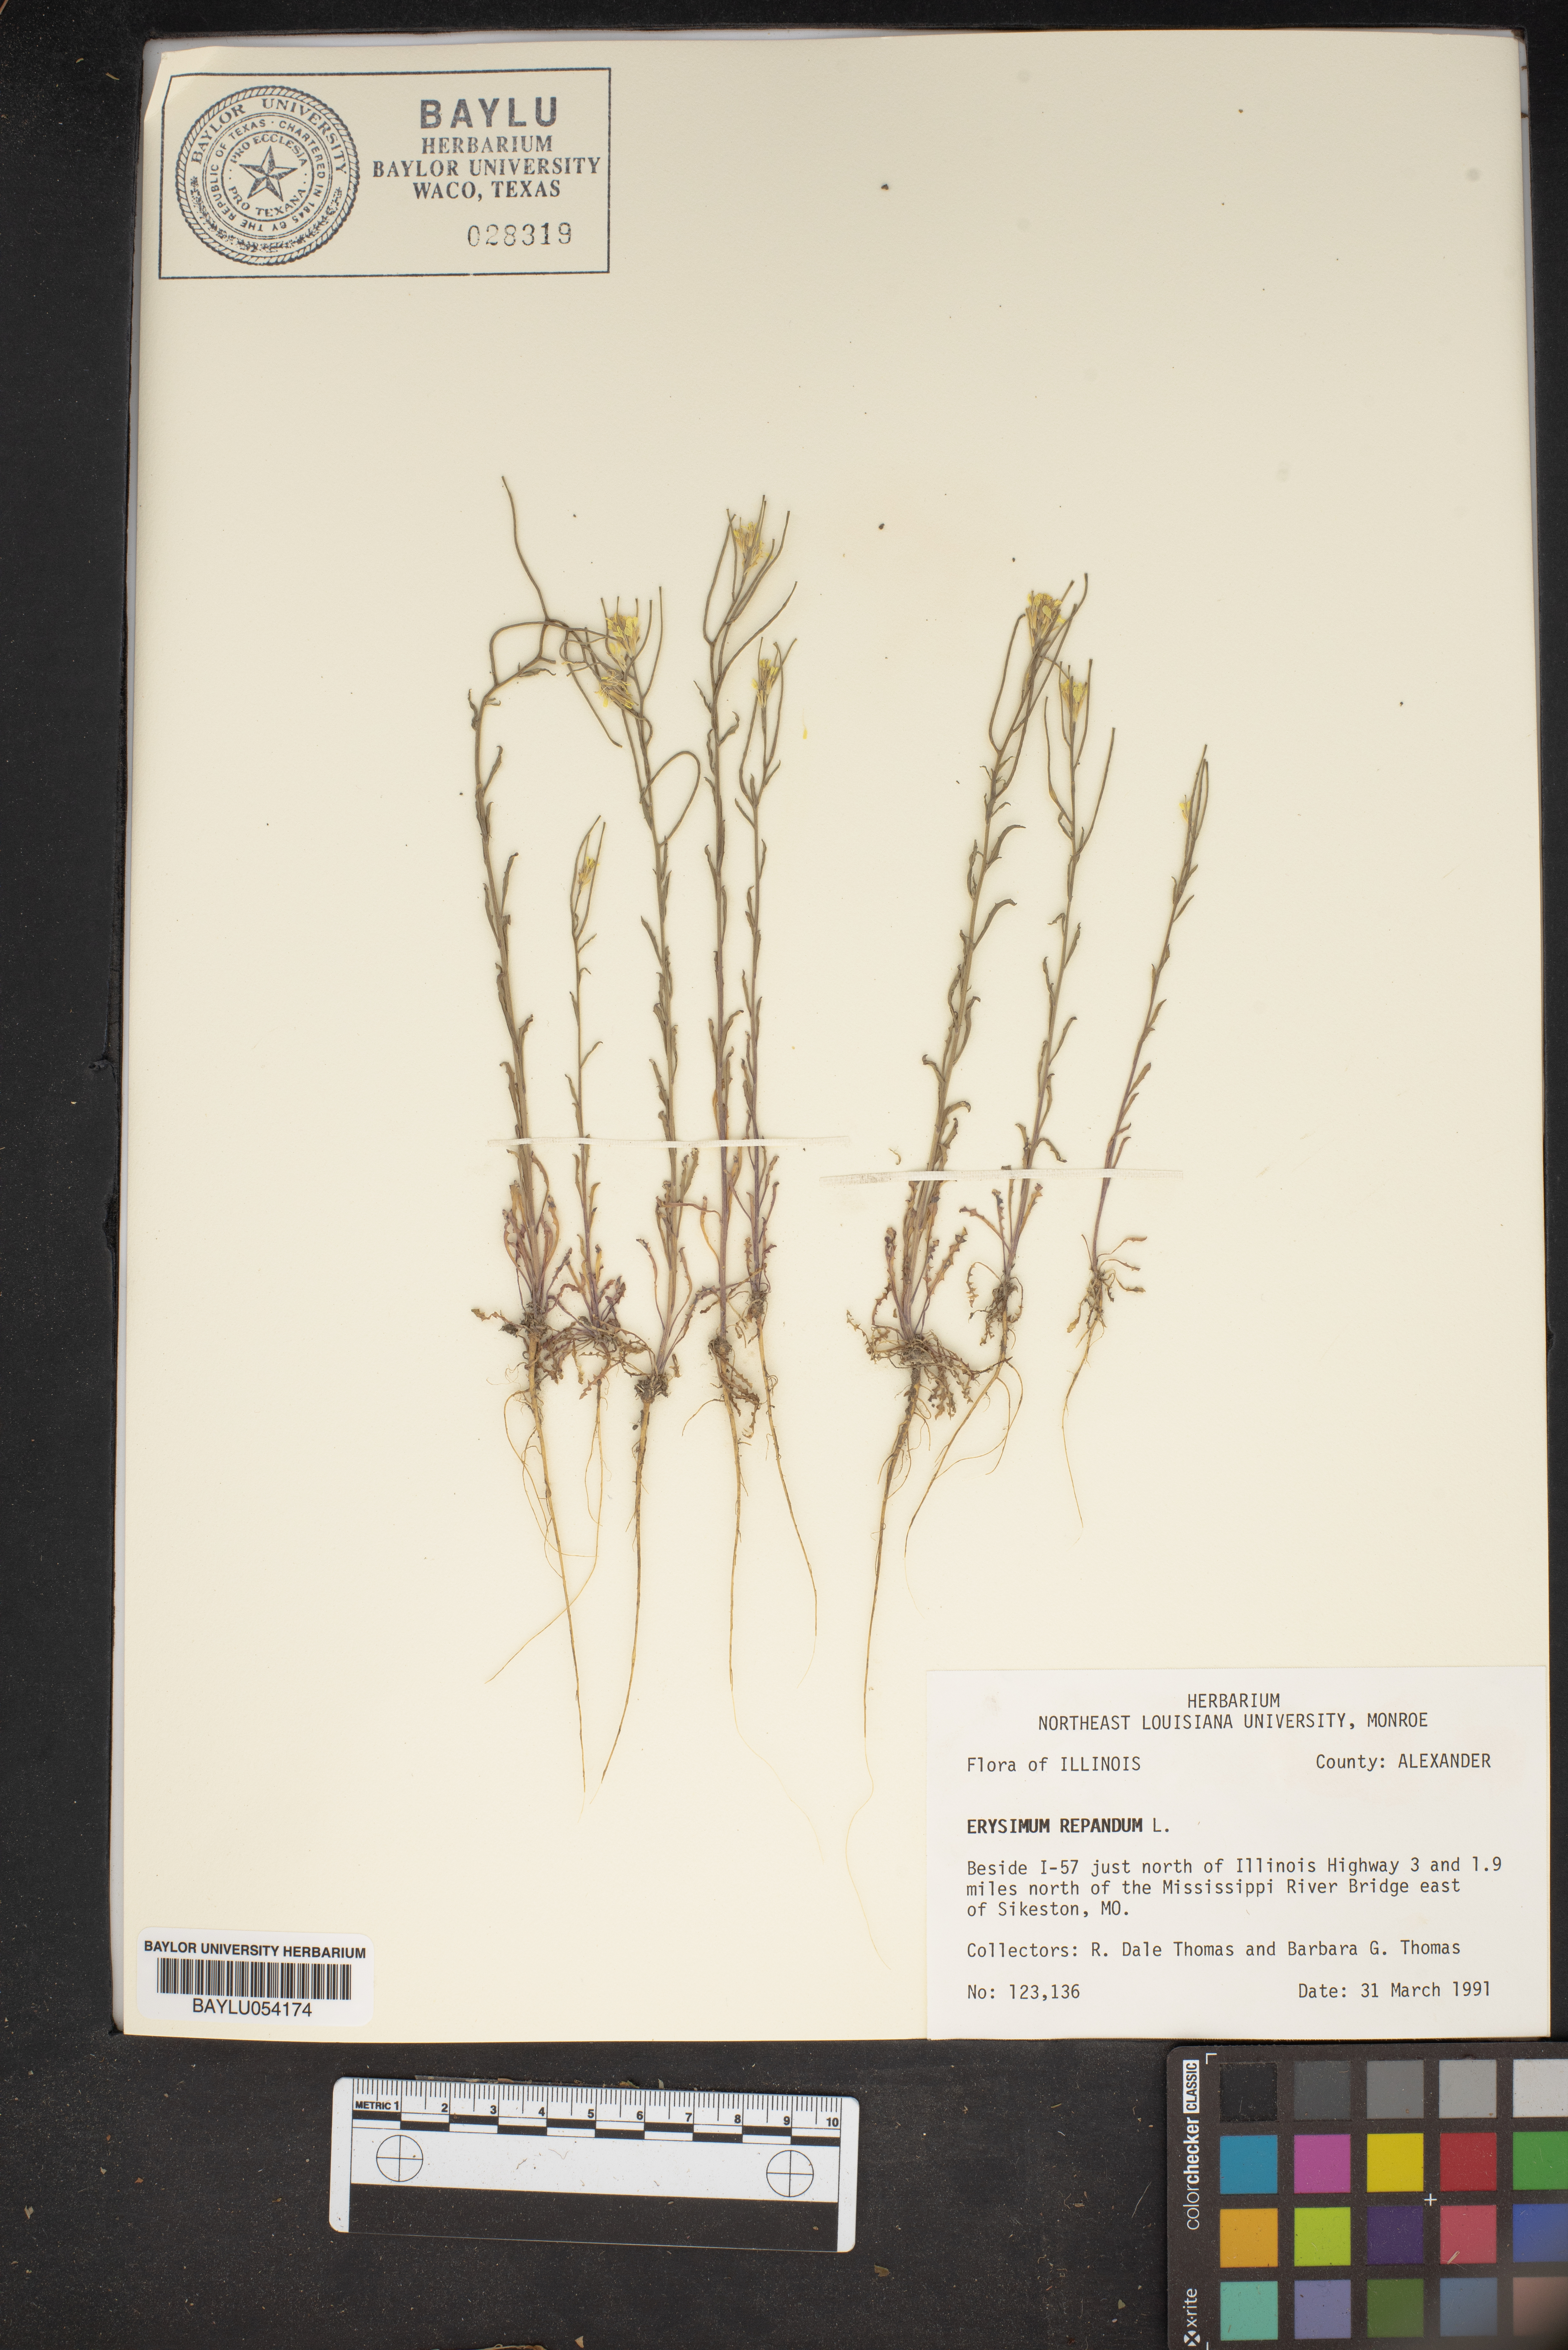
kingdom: Plantae
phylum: Tracheophyta
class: Magnoliopsida
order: Brassicales
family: Brassicaceae
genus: Erysimum
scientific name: Erysimum repandum
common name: Spreading wallflower
